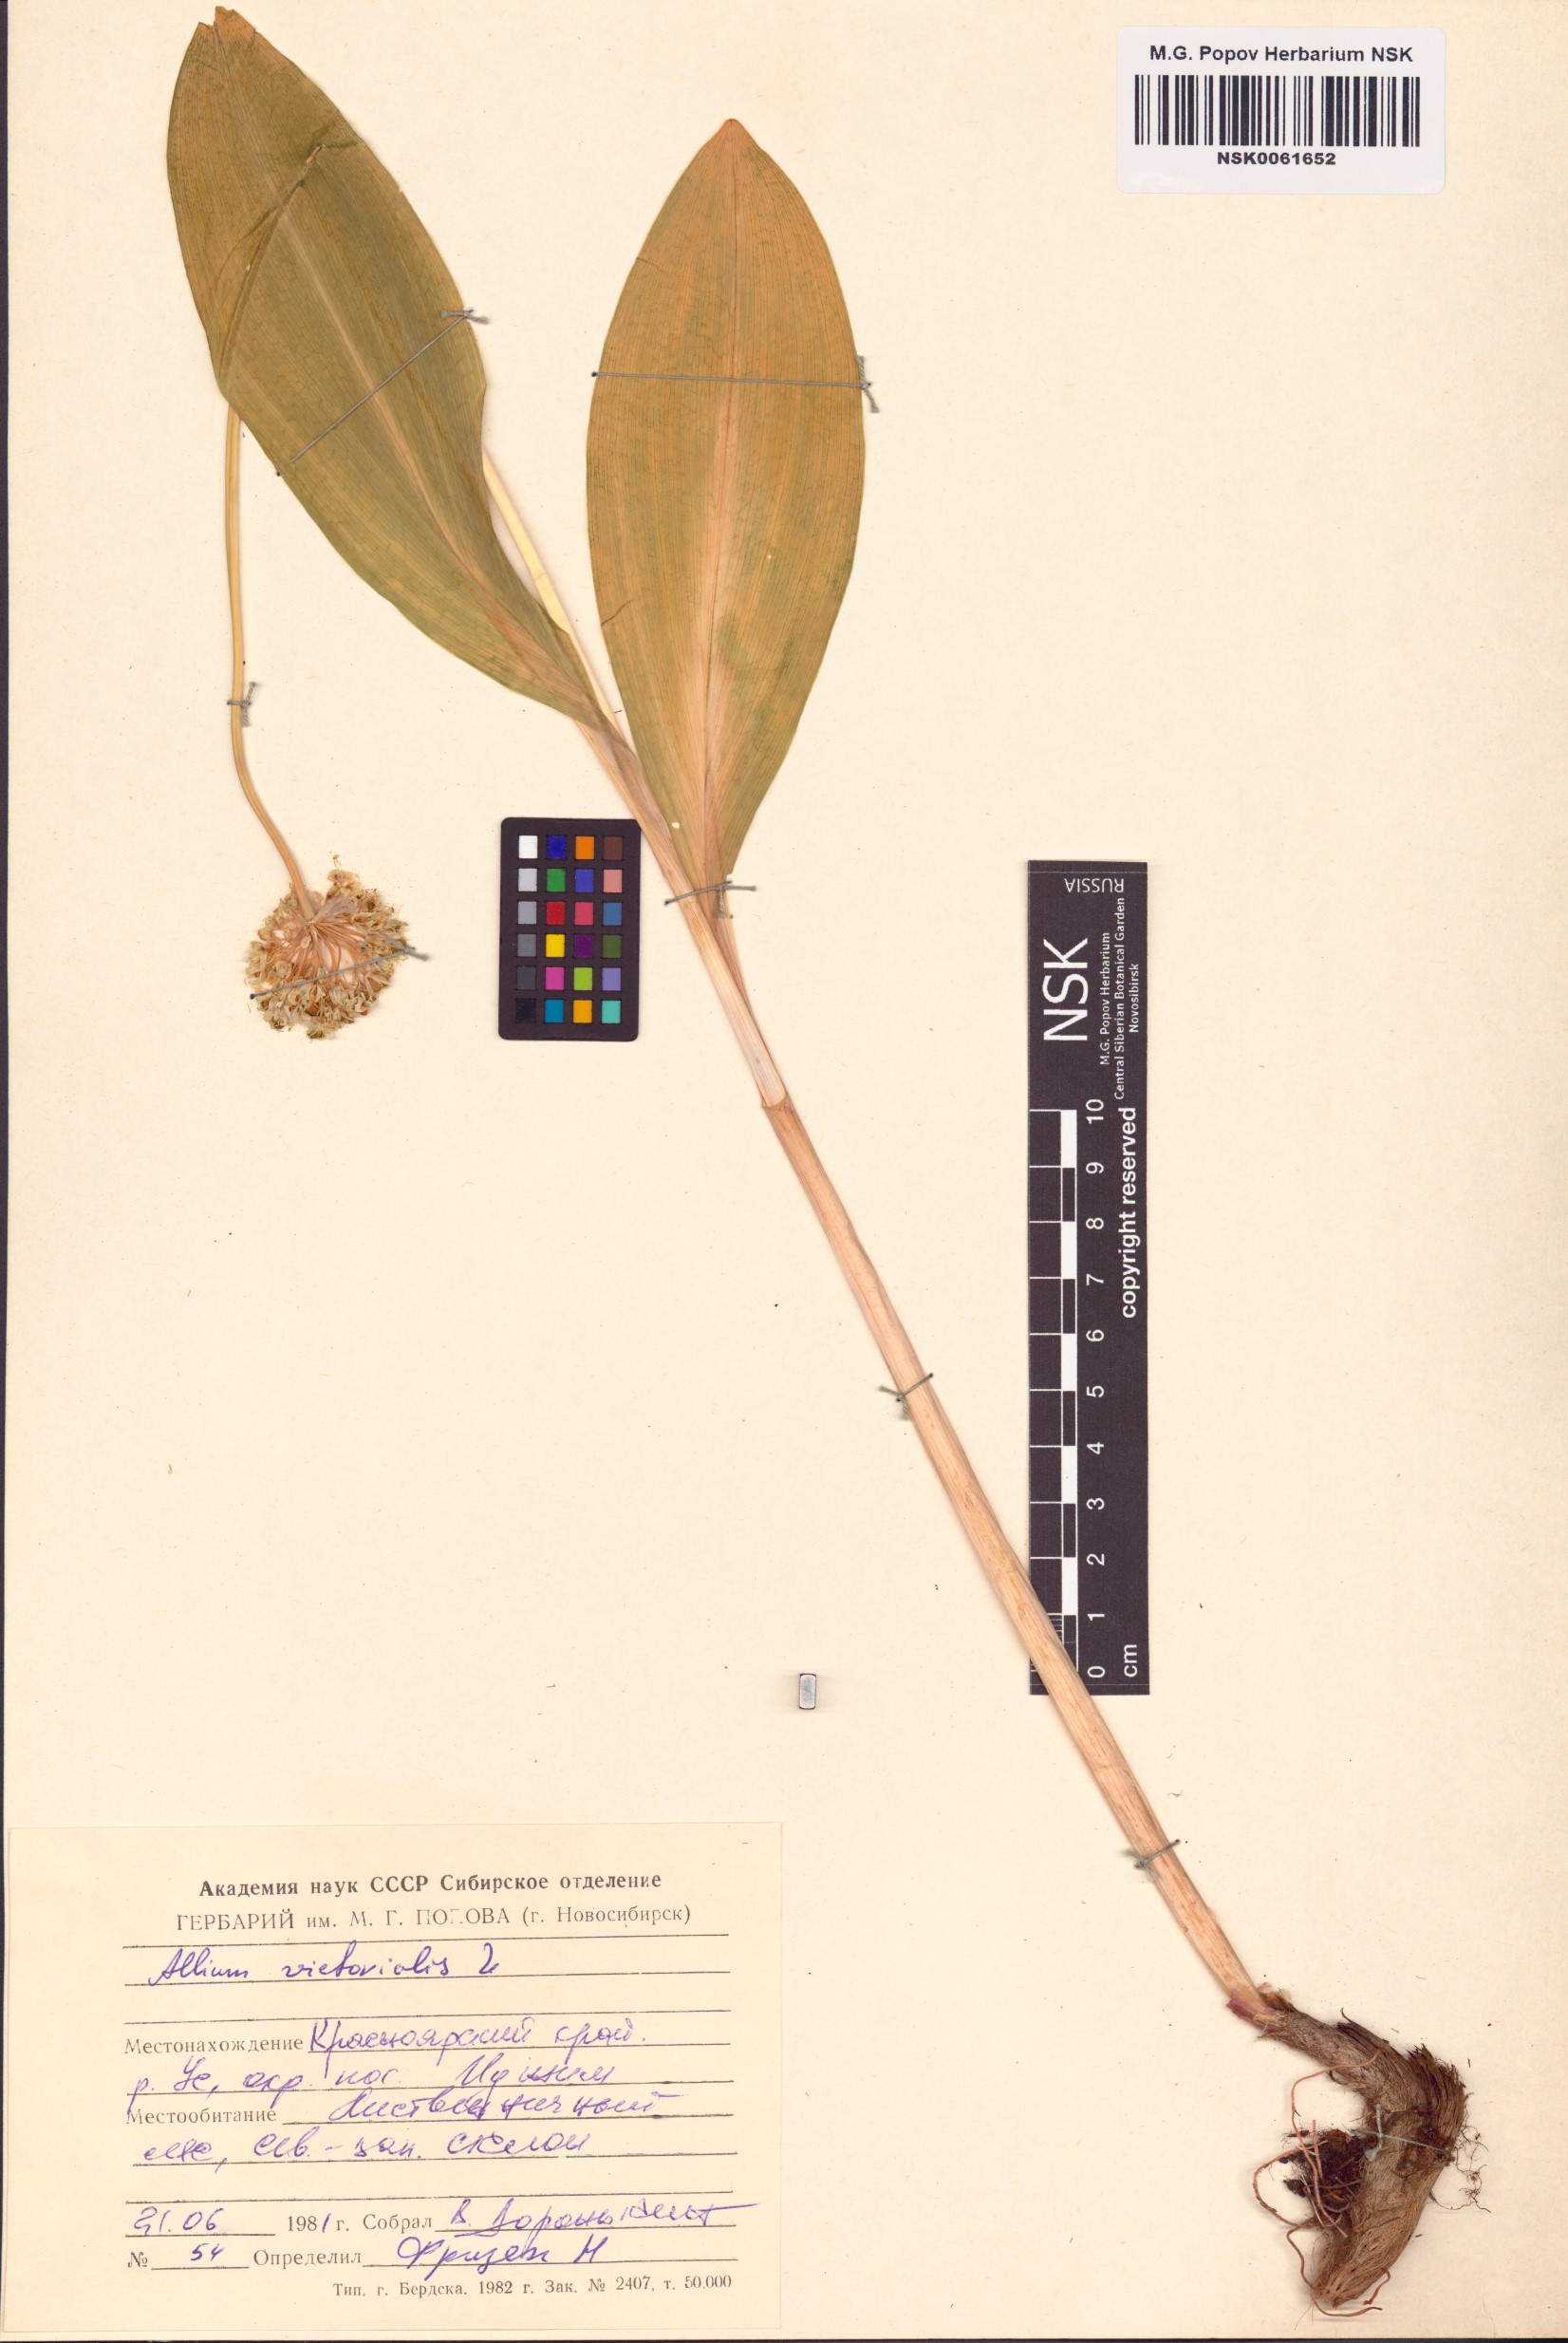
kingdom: Plantae
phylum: Tracheophyta
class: Liliopsida
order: Asparagales
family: Amaryllidaceae
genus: Allium
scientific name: Allium victorialis
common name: Alpine leek
